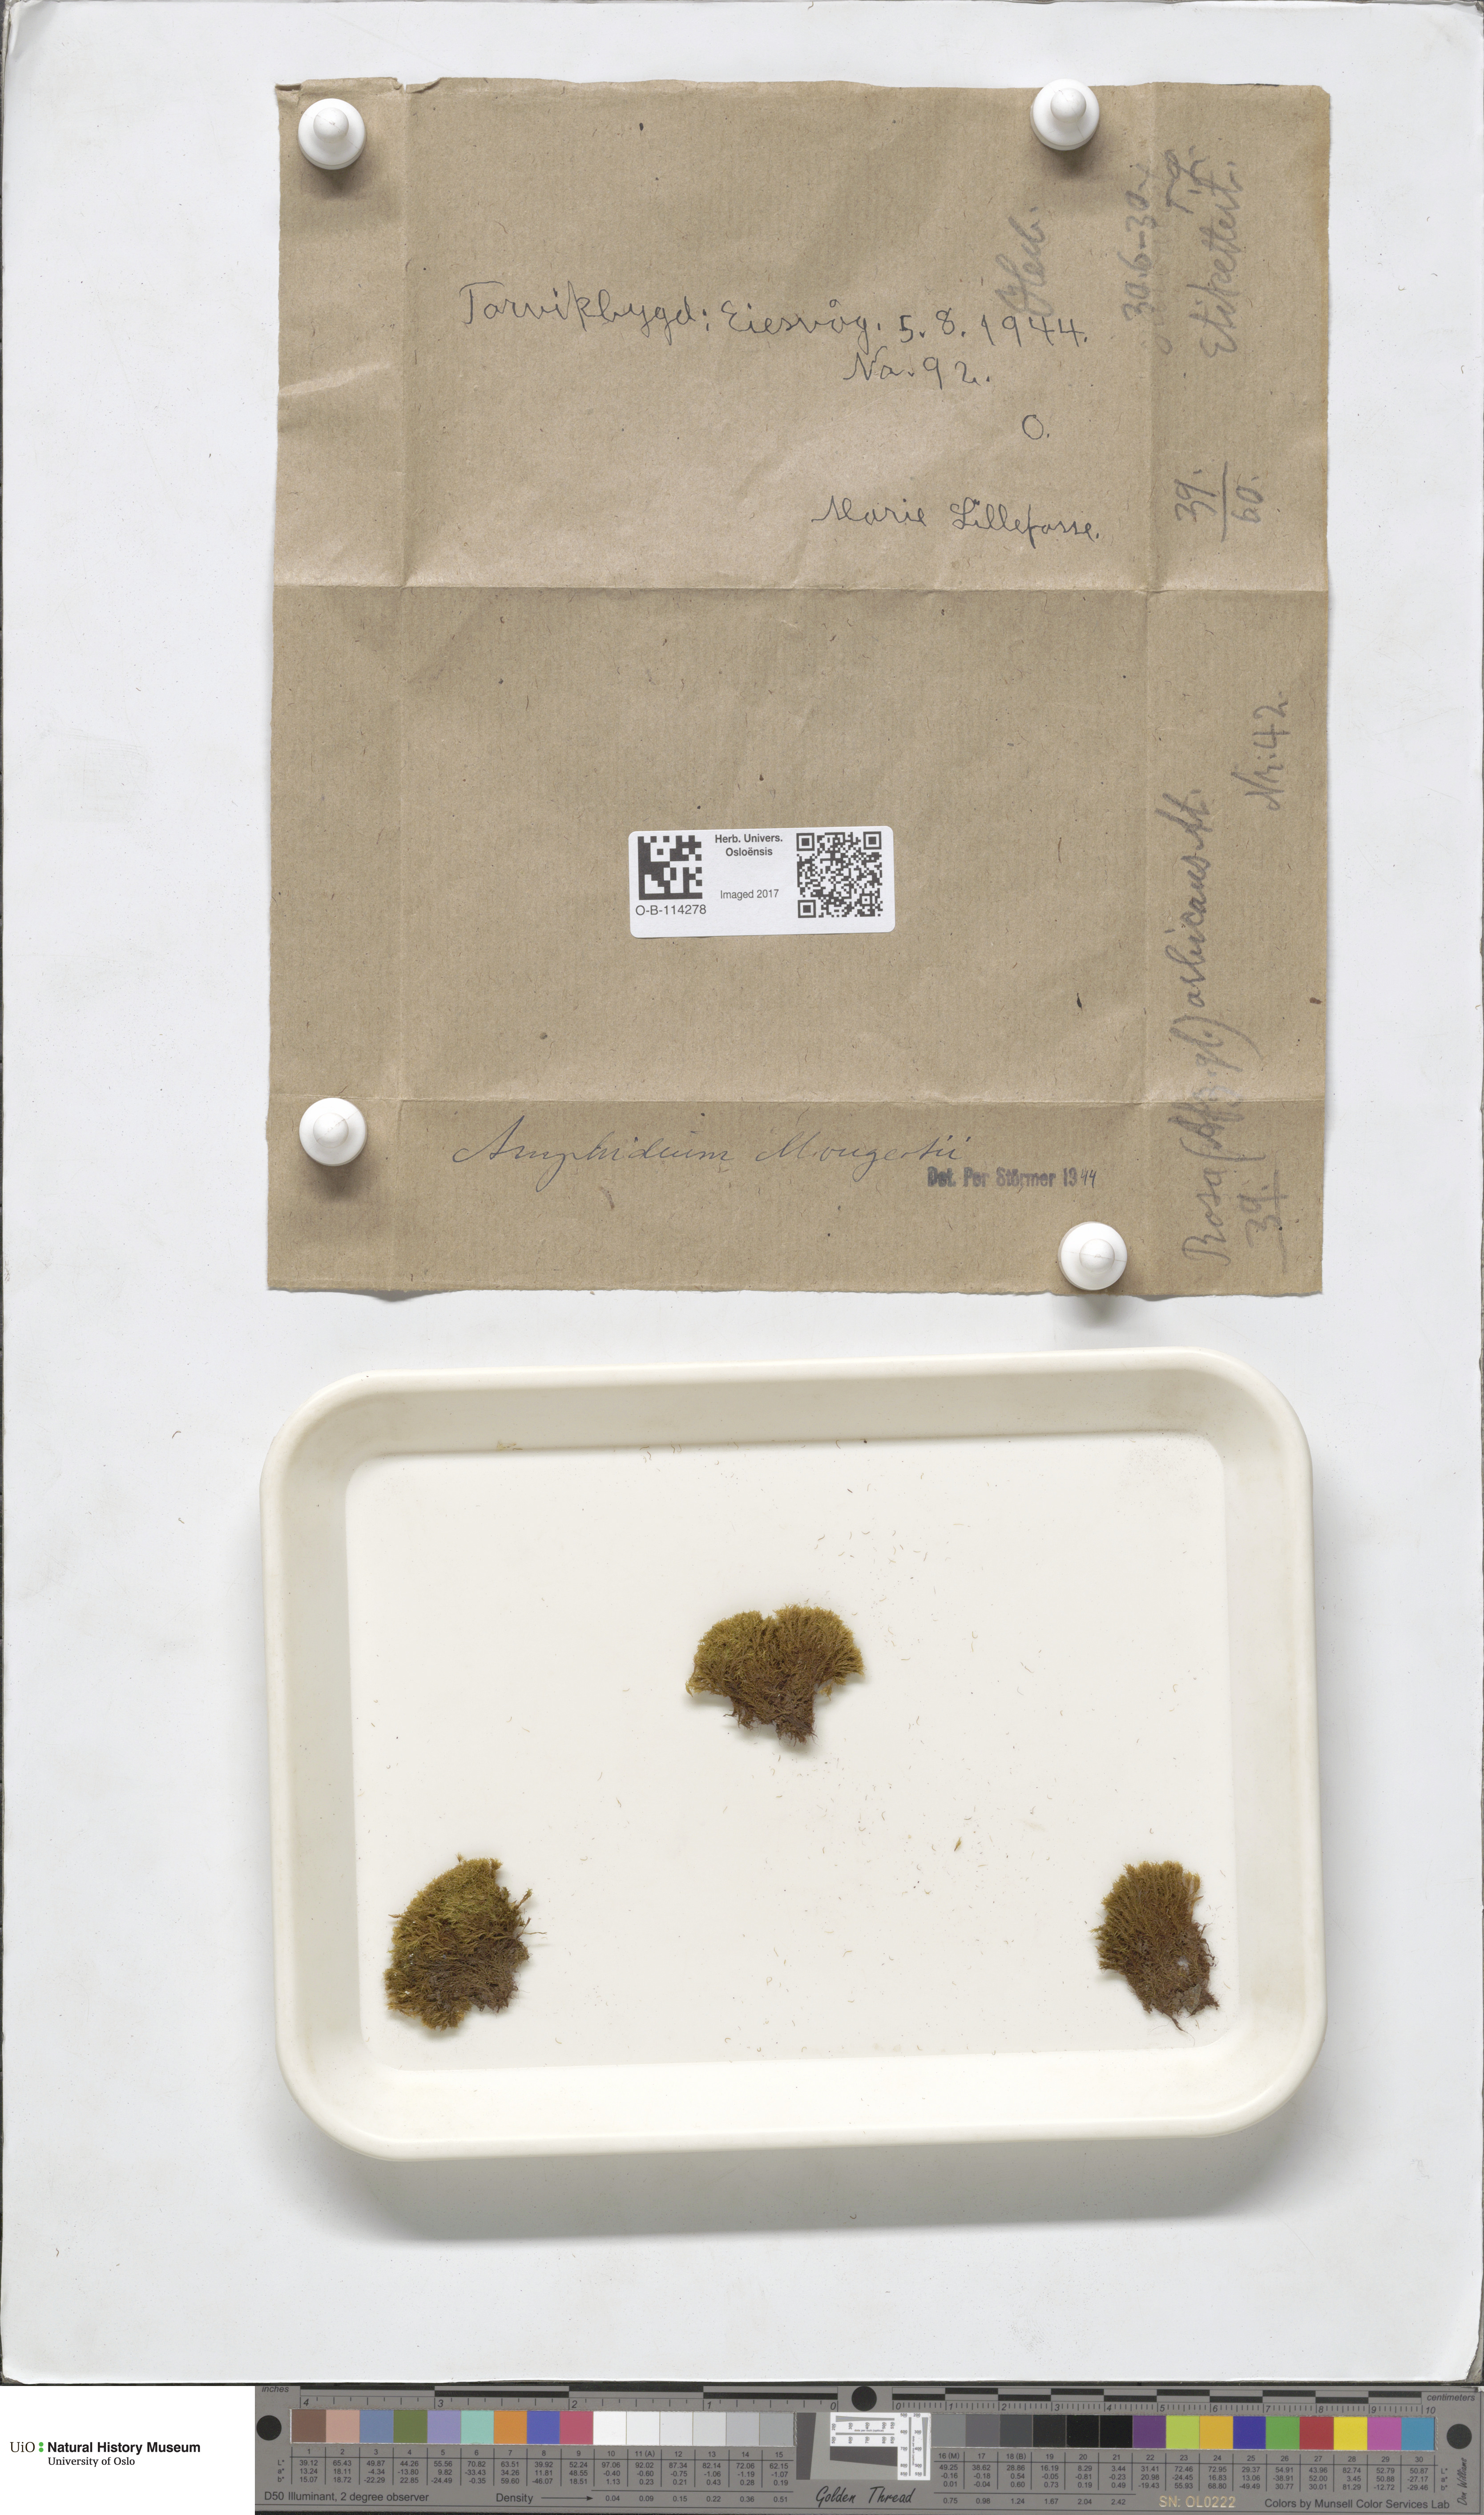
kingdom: Plantae
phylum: Bryophyta
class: Bryopsida
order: Dicranales
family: Amphidiaceae
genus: Amphidium
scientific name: Amphidium mougeotii
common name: Mougeot's yoke moss
